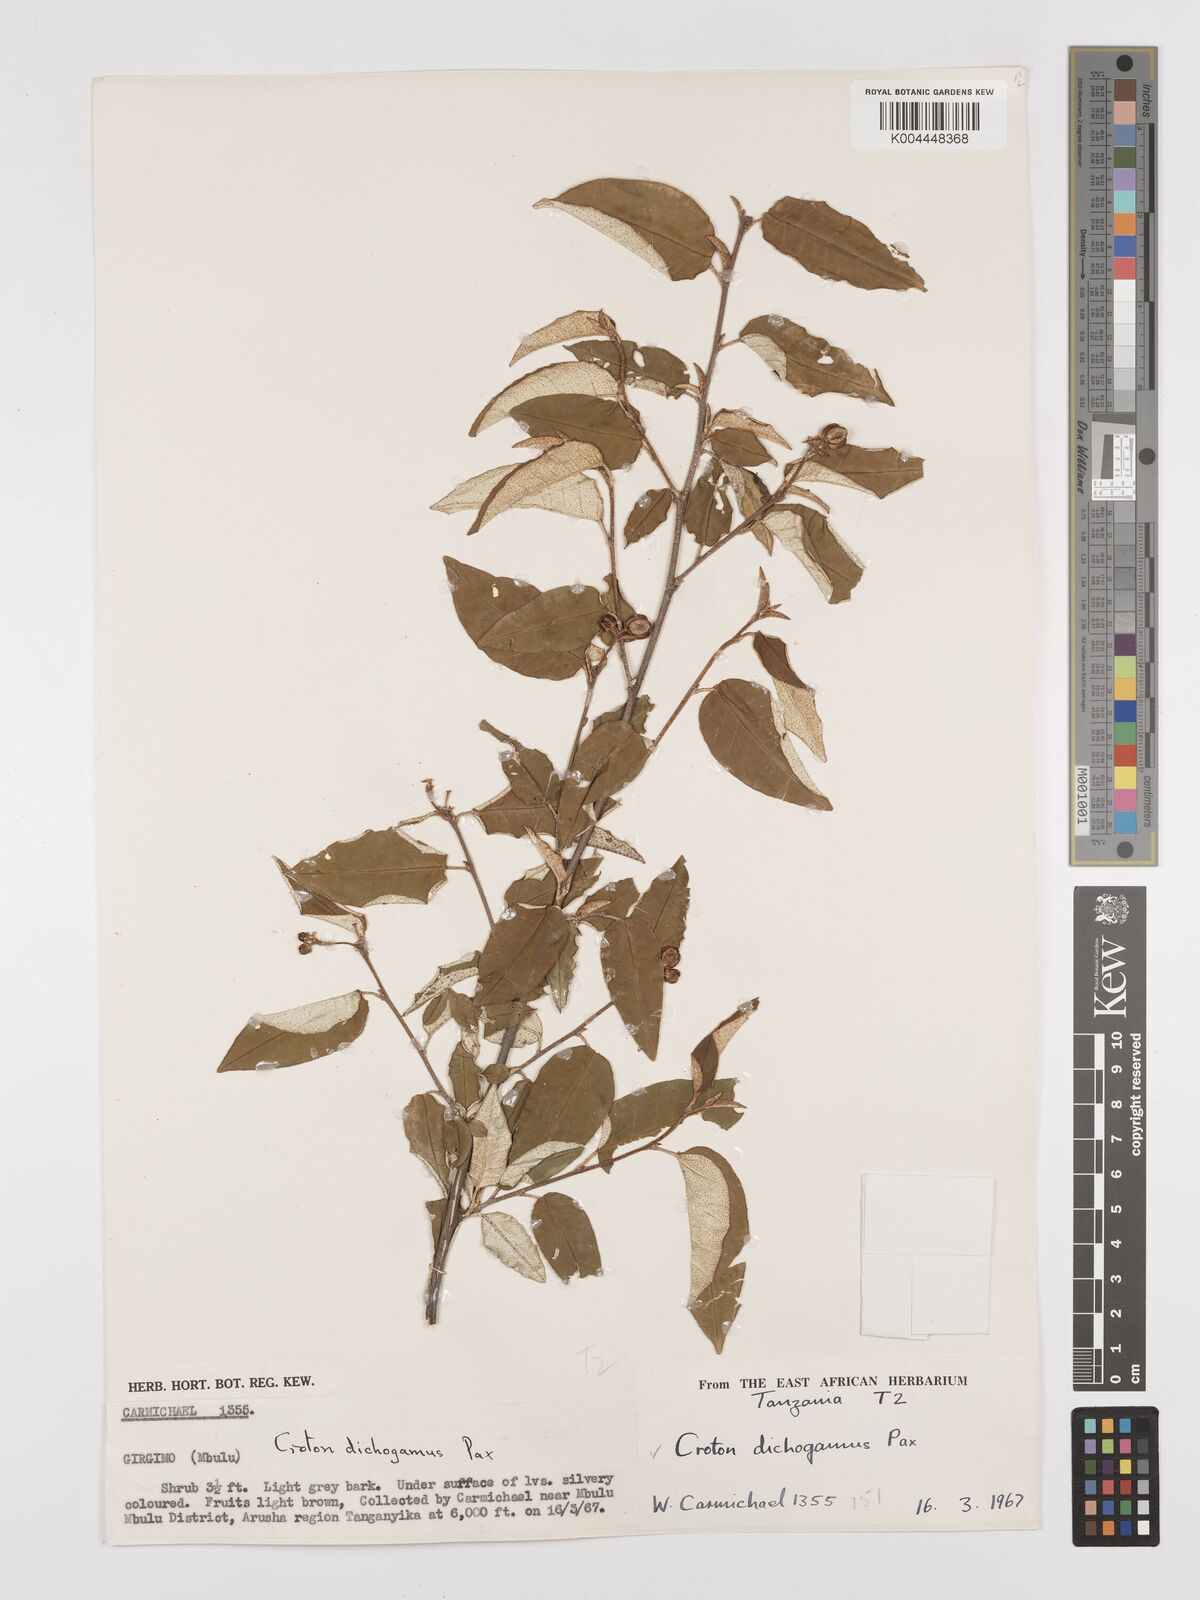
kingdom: Plantae
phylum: Tracheophyta
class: Magnoliopsida
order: Malpighiales
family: Euphorbiaceae
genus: Croton
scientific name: Croton dichogamus
